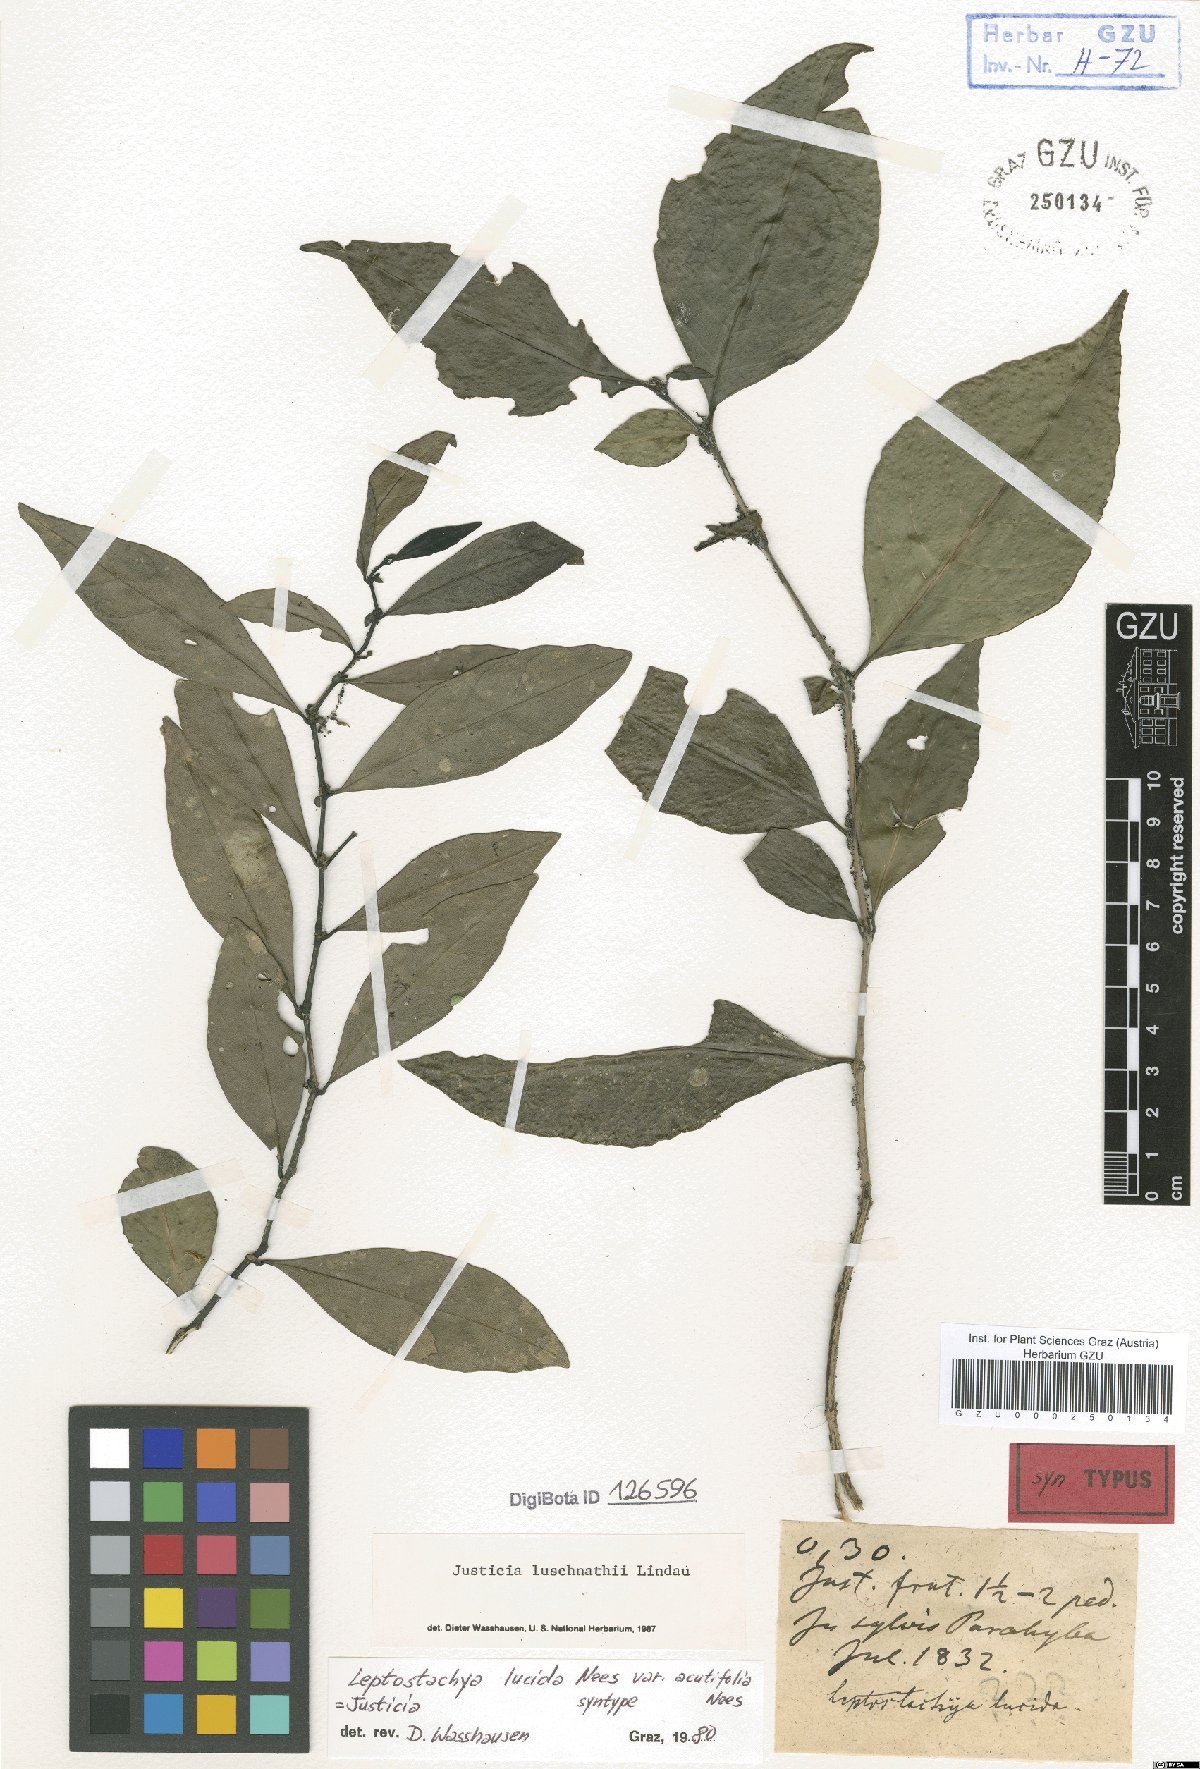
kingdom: Plantae
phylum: Tracheophyta
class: Magnoliopsida
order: Lamiales
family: Acanthaceae
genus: Justicia
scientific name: Justicia luschnathii
